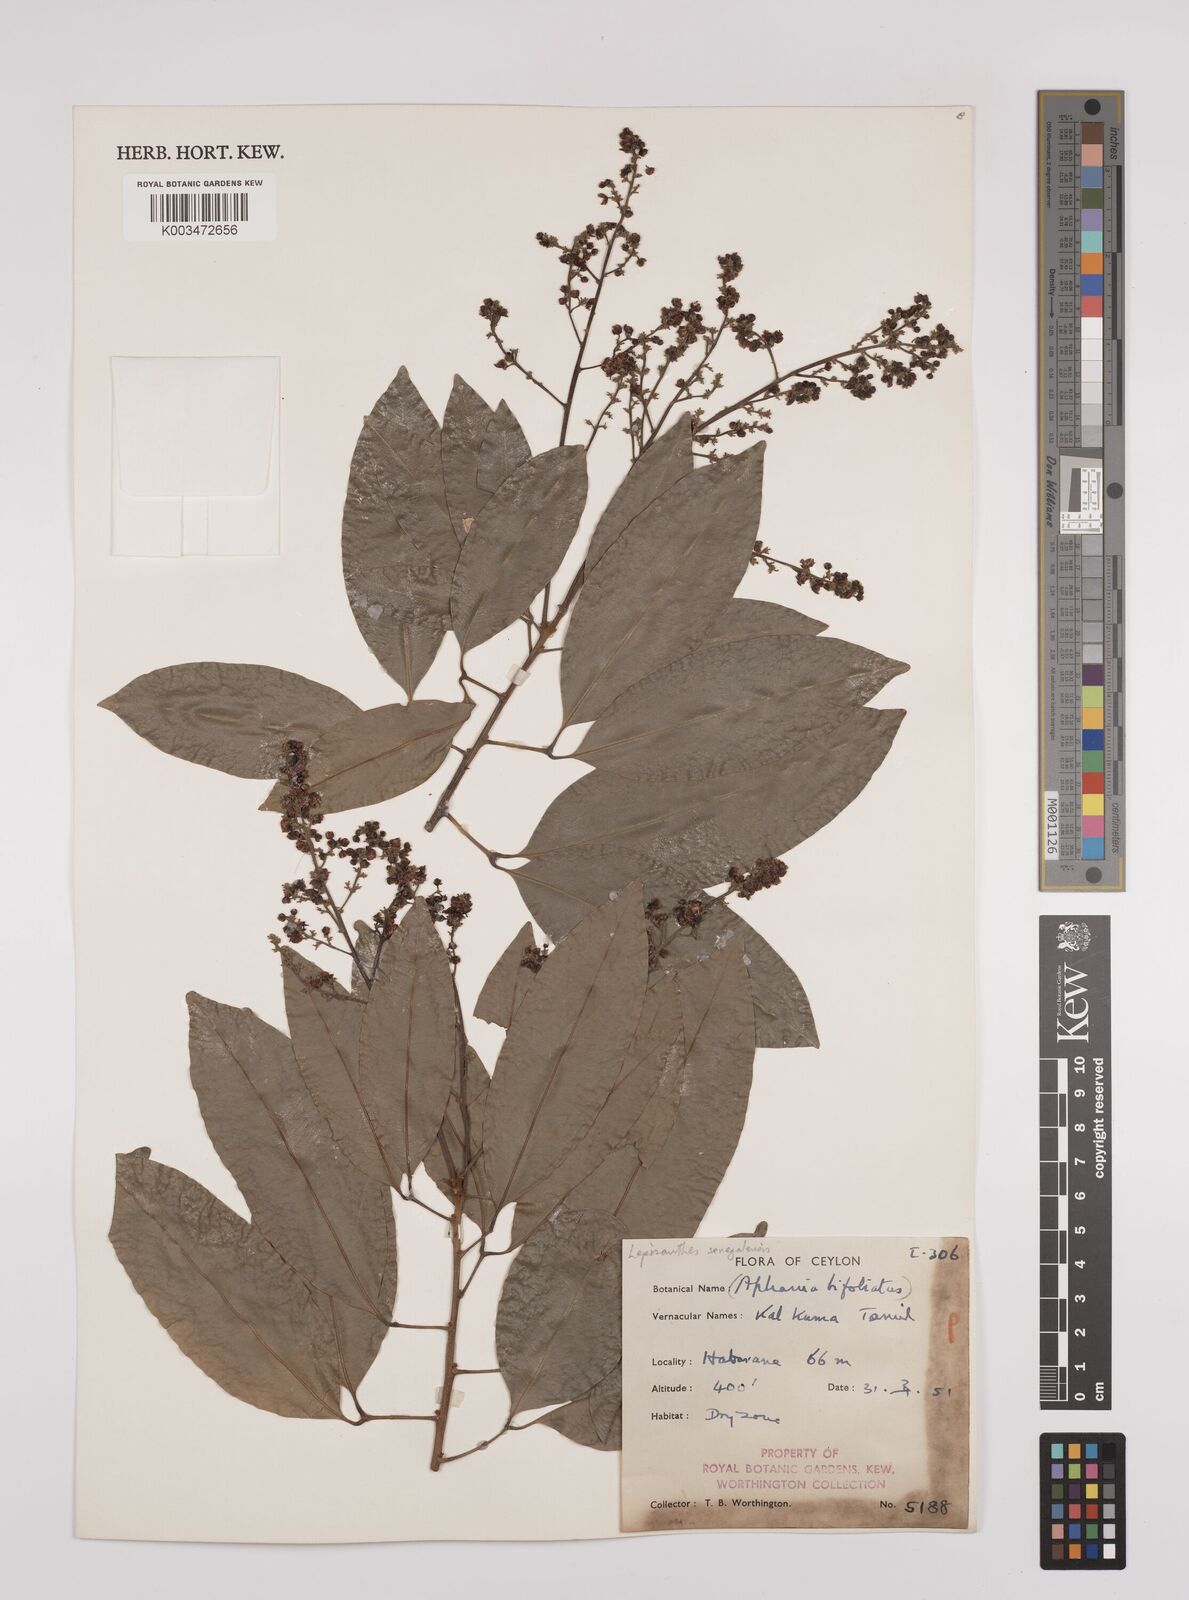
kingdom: Plantae
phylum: Tracheophyta
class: Magnoliopsida
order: Sapindales
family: Sapindaceae
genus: Lepisanthes
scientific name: Lepisanthes senegalensis
